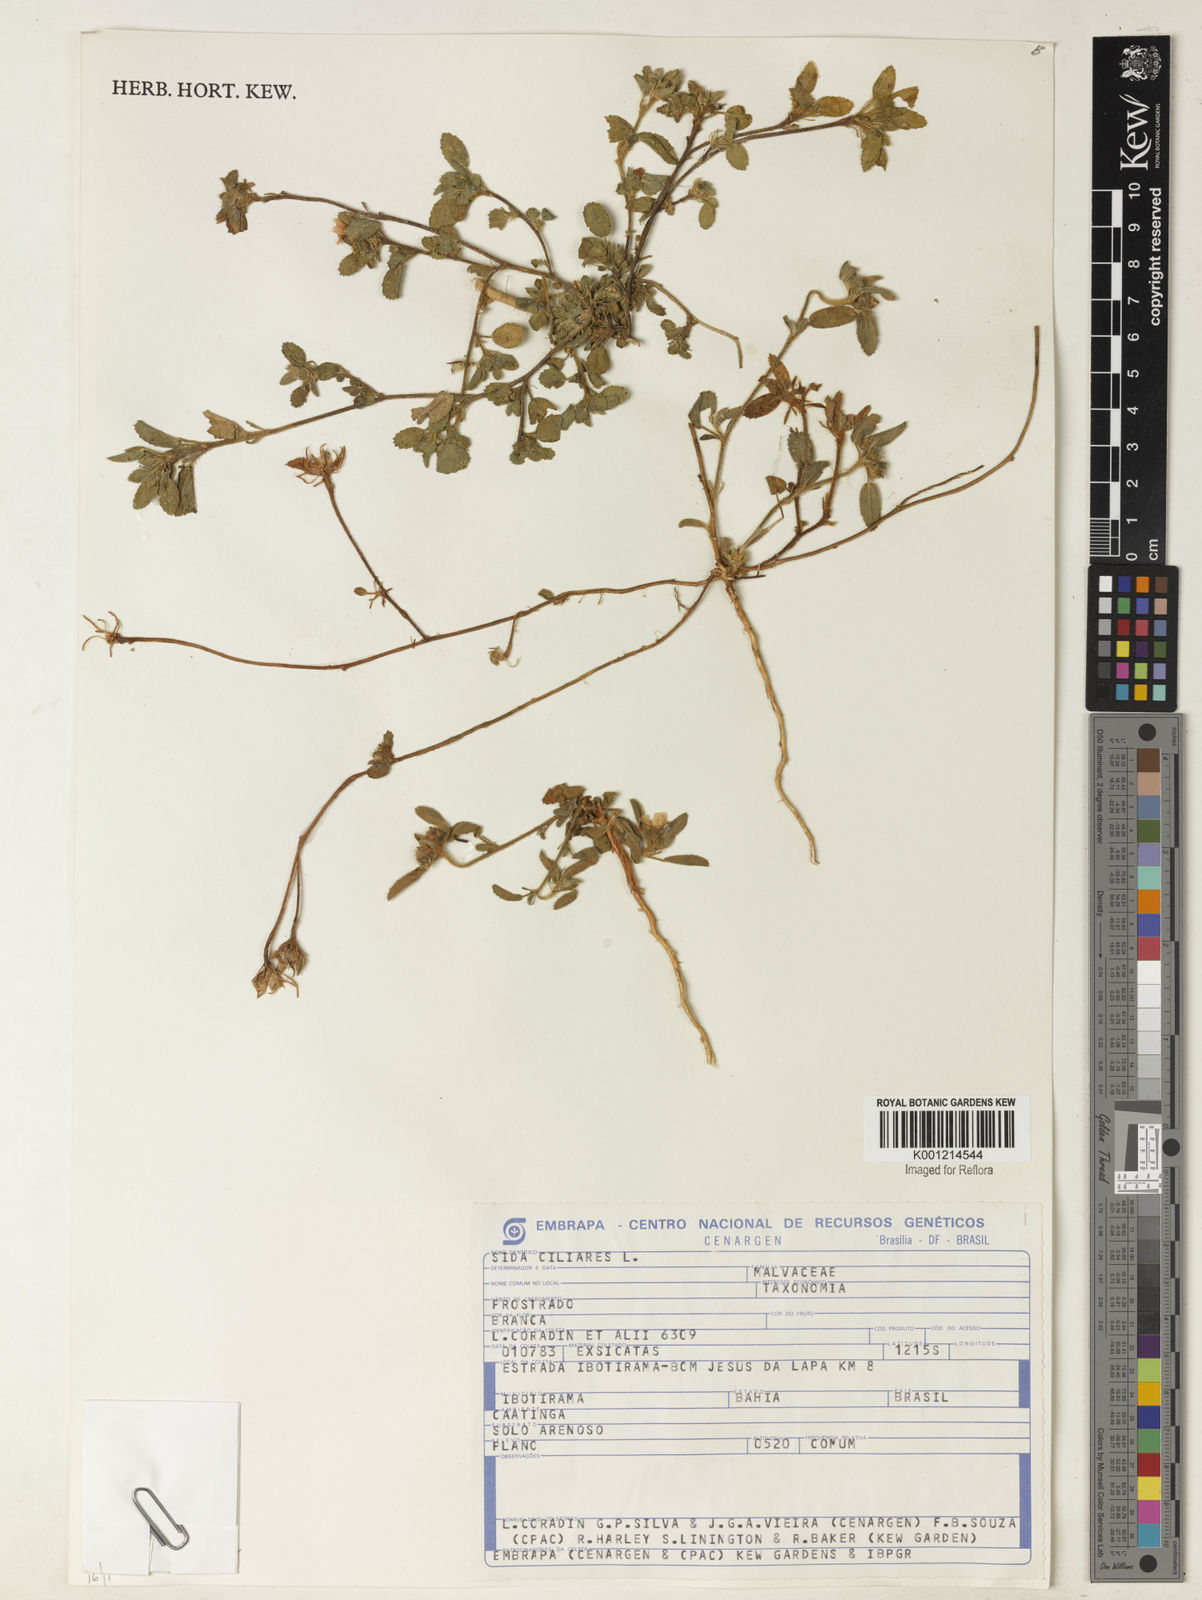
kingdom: Plantae
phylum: Tracheophyta
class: Magnoliopsida
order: Malvales
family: Malvaceae
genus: Sida
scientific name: Sida ciliaris
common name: Bracted fanpetals
